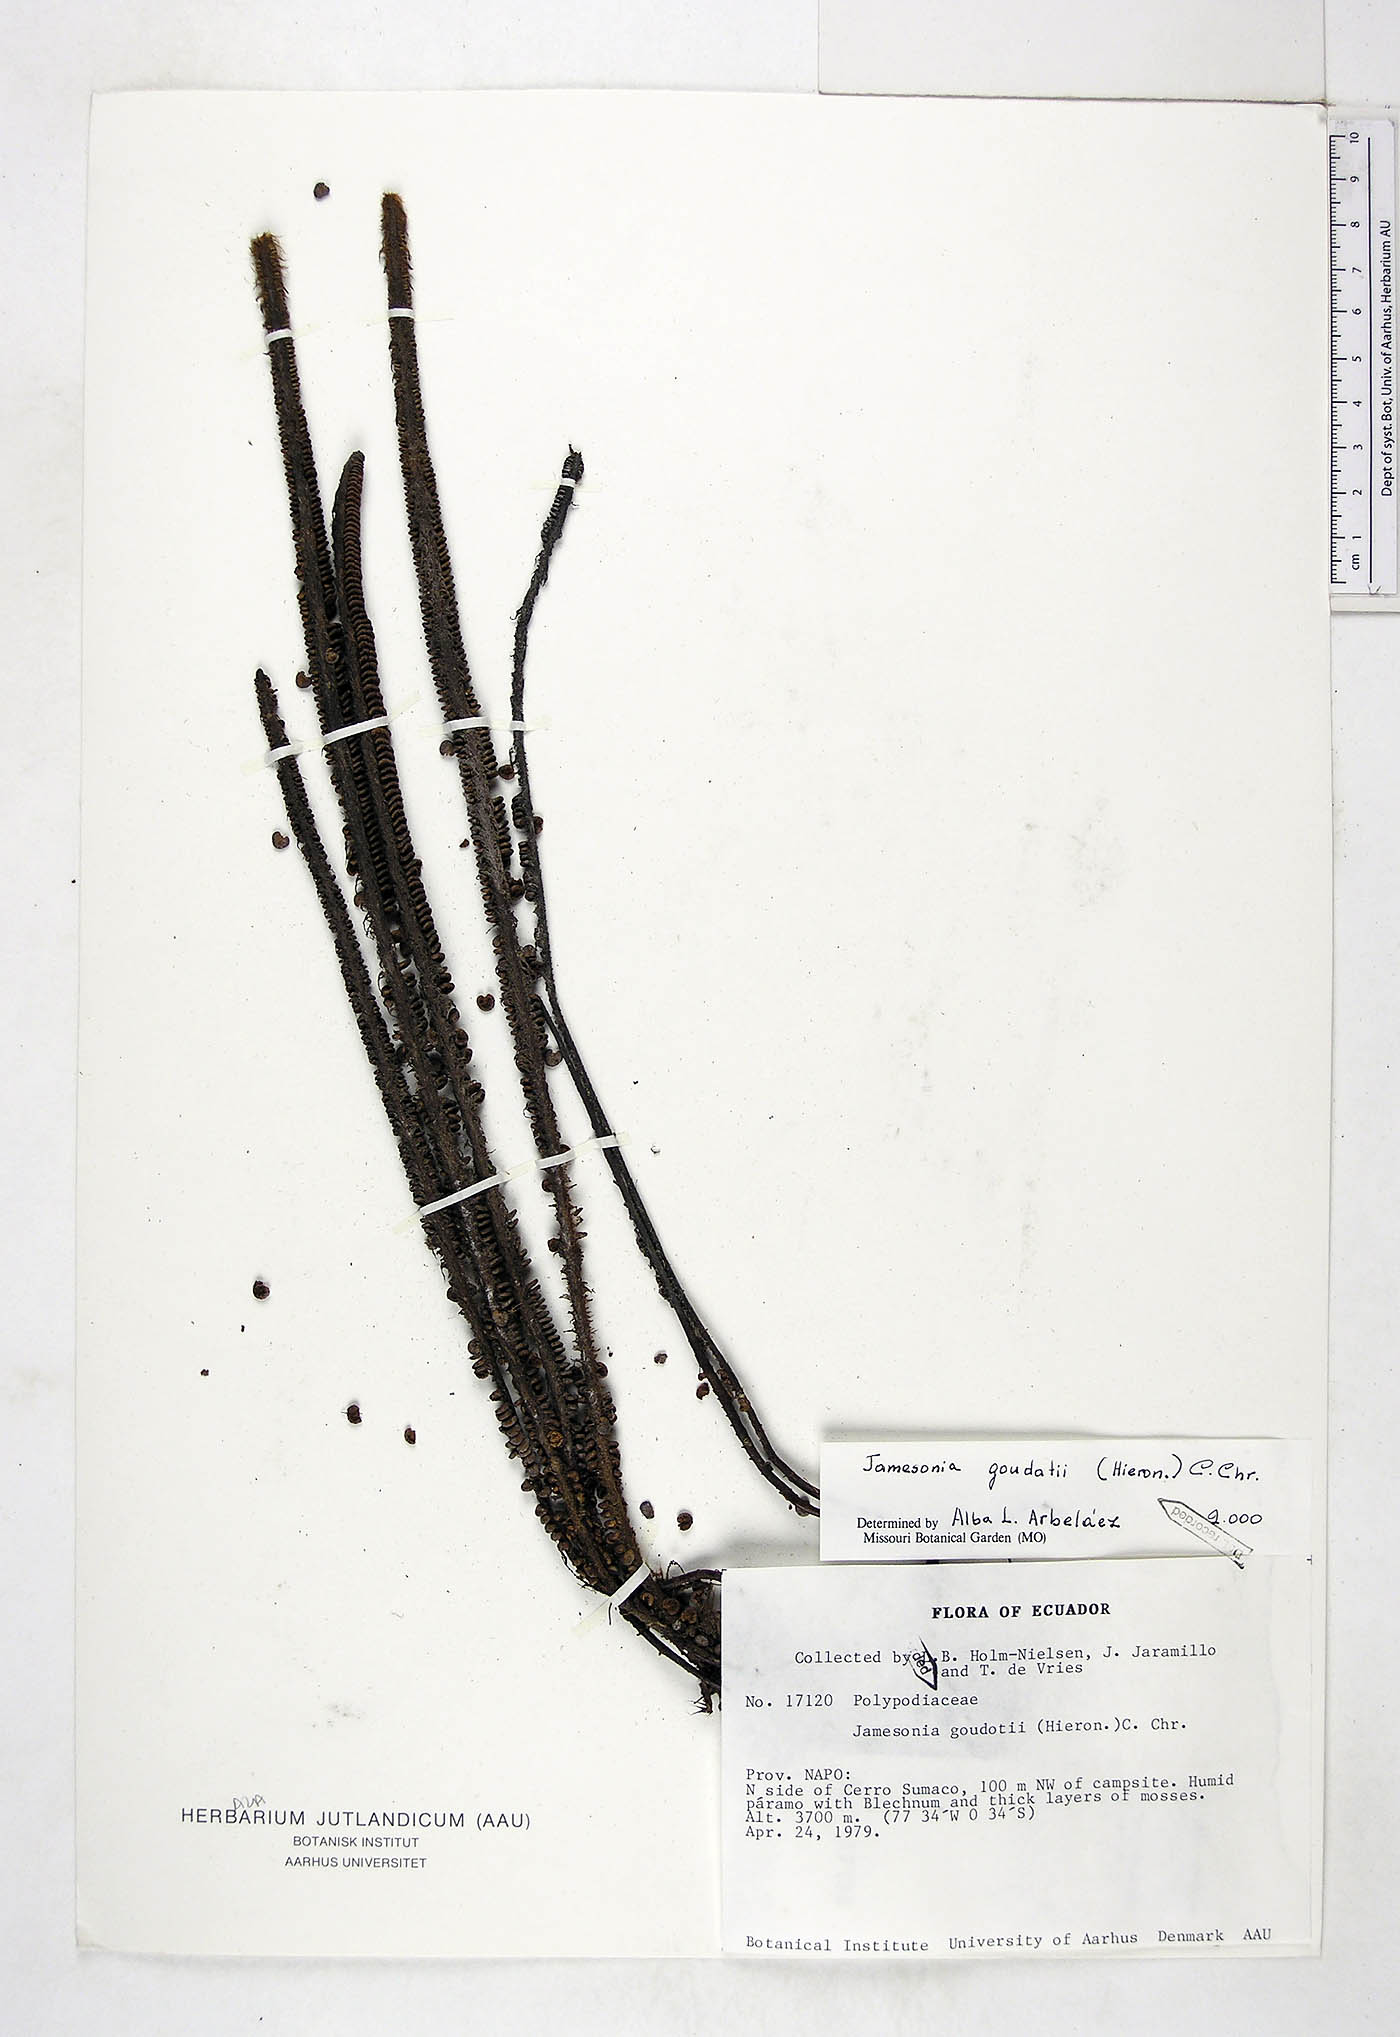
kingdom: Plantae
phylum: Tracheophyta
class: Polypodiopsida
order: Polypodiales
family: Pteridaceae
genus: Jamesonia
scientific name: Jamesonia goudotii
